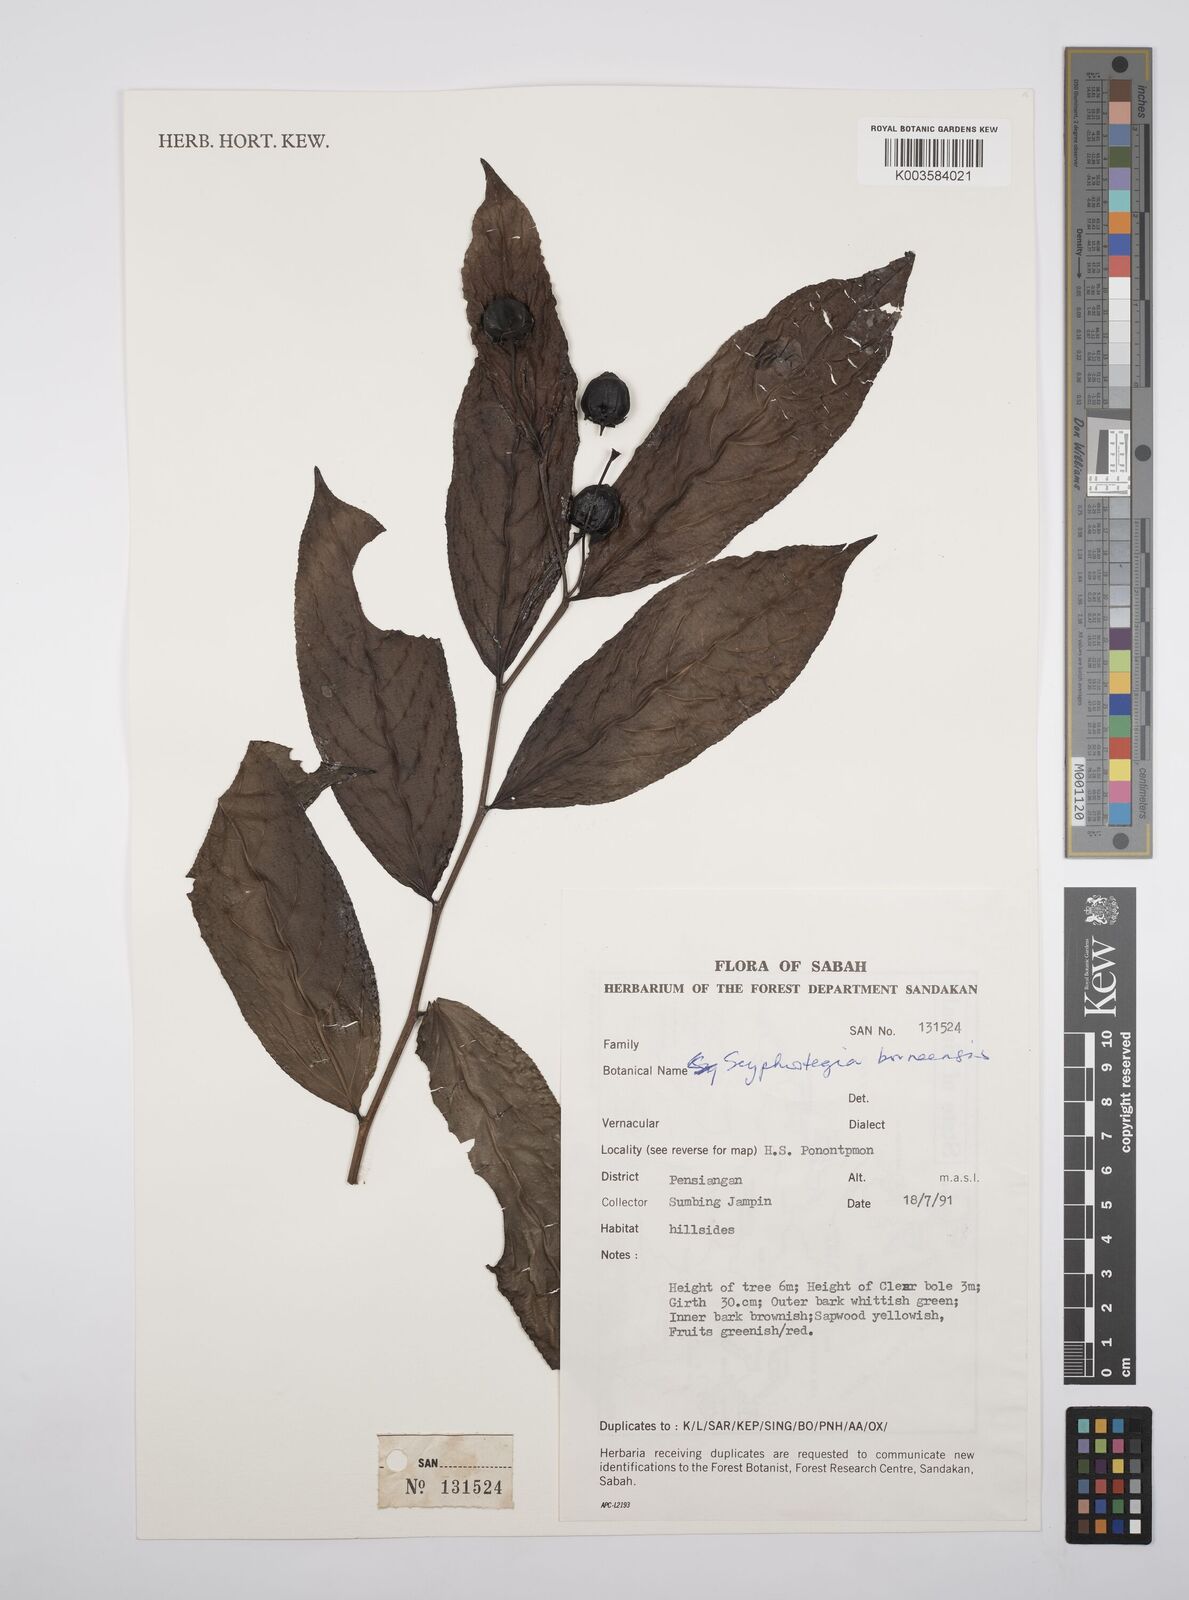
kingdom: Plantae
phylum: Tracheophyta
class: Magnoliopsida
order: Malpighiales
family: Salicaceae
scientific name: Salicaceae
